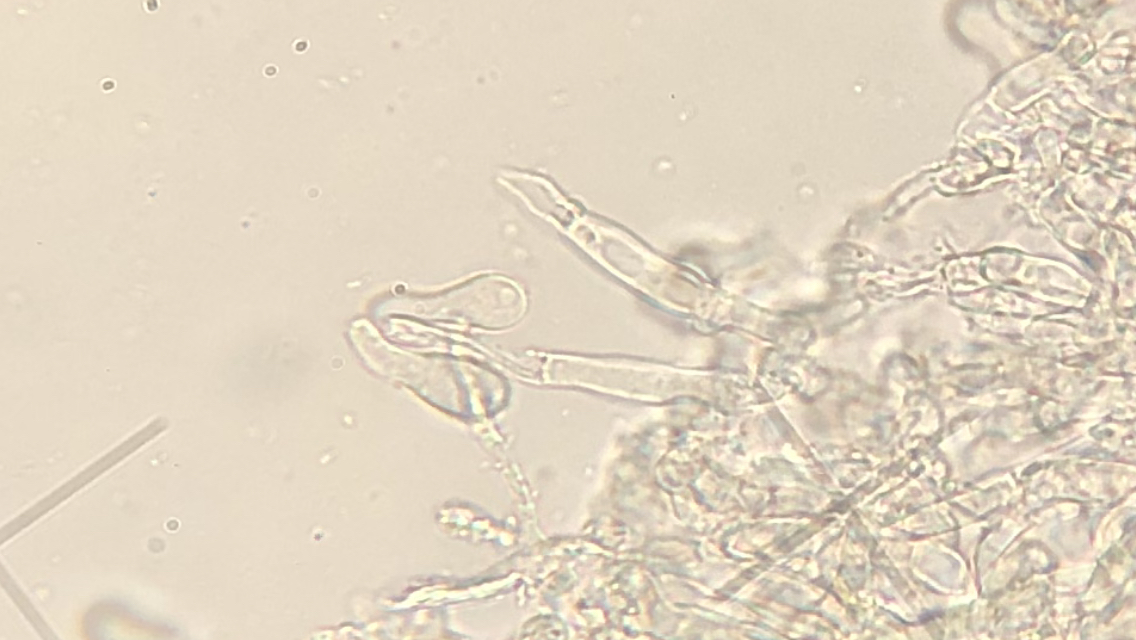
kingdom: Fungi
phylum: Basidiomycota
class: Agaricomycetes
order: Corticiales
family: Corticiaceae
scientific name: Corticiaceae
